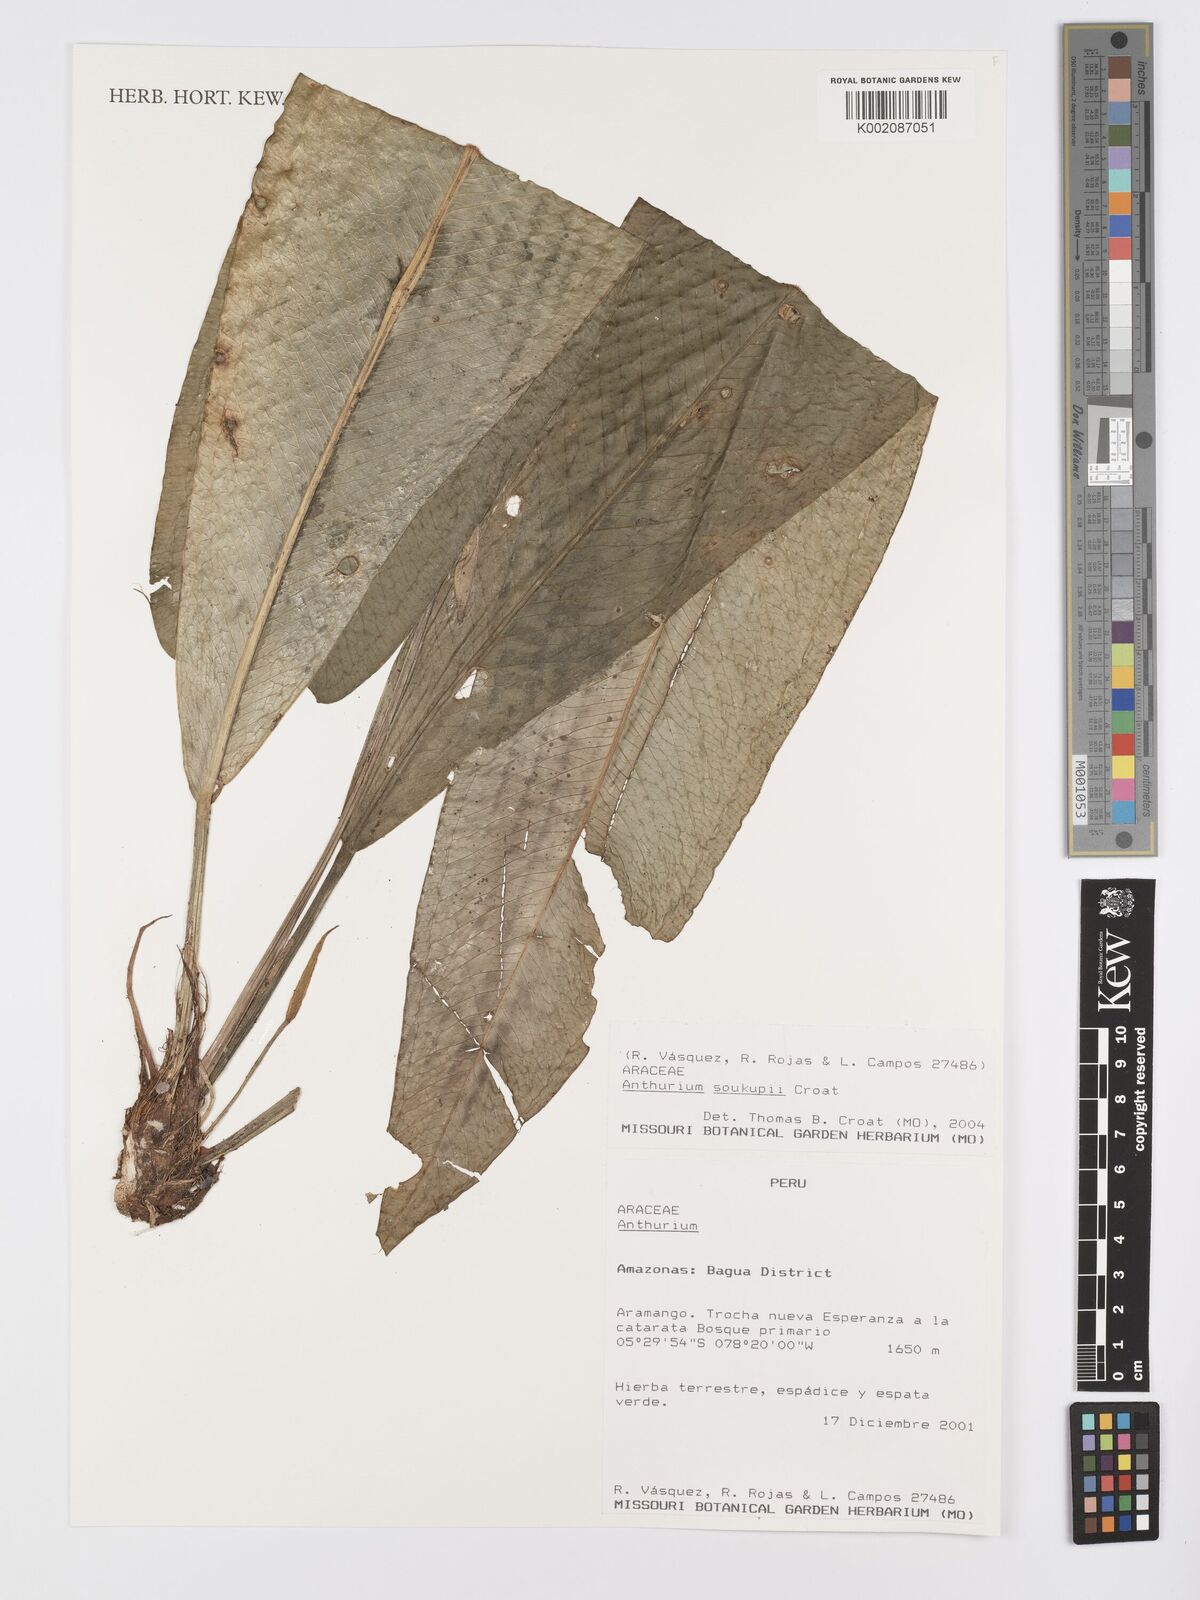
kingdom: Plantae
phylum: Tracheophyta
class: Liliopsida
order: Alismatales
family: Araceae
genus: Anthurium
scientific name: Anthurium soukupii
